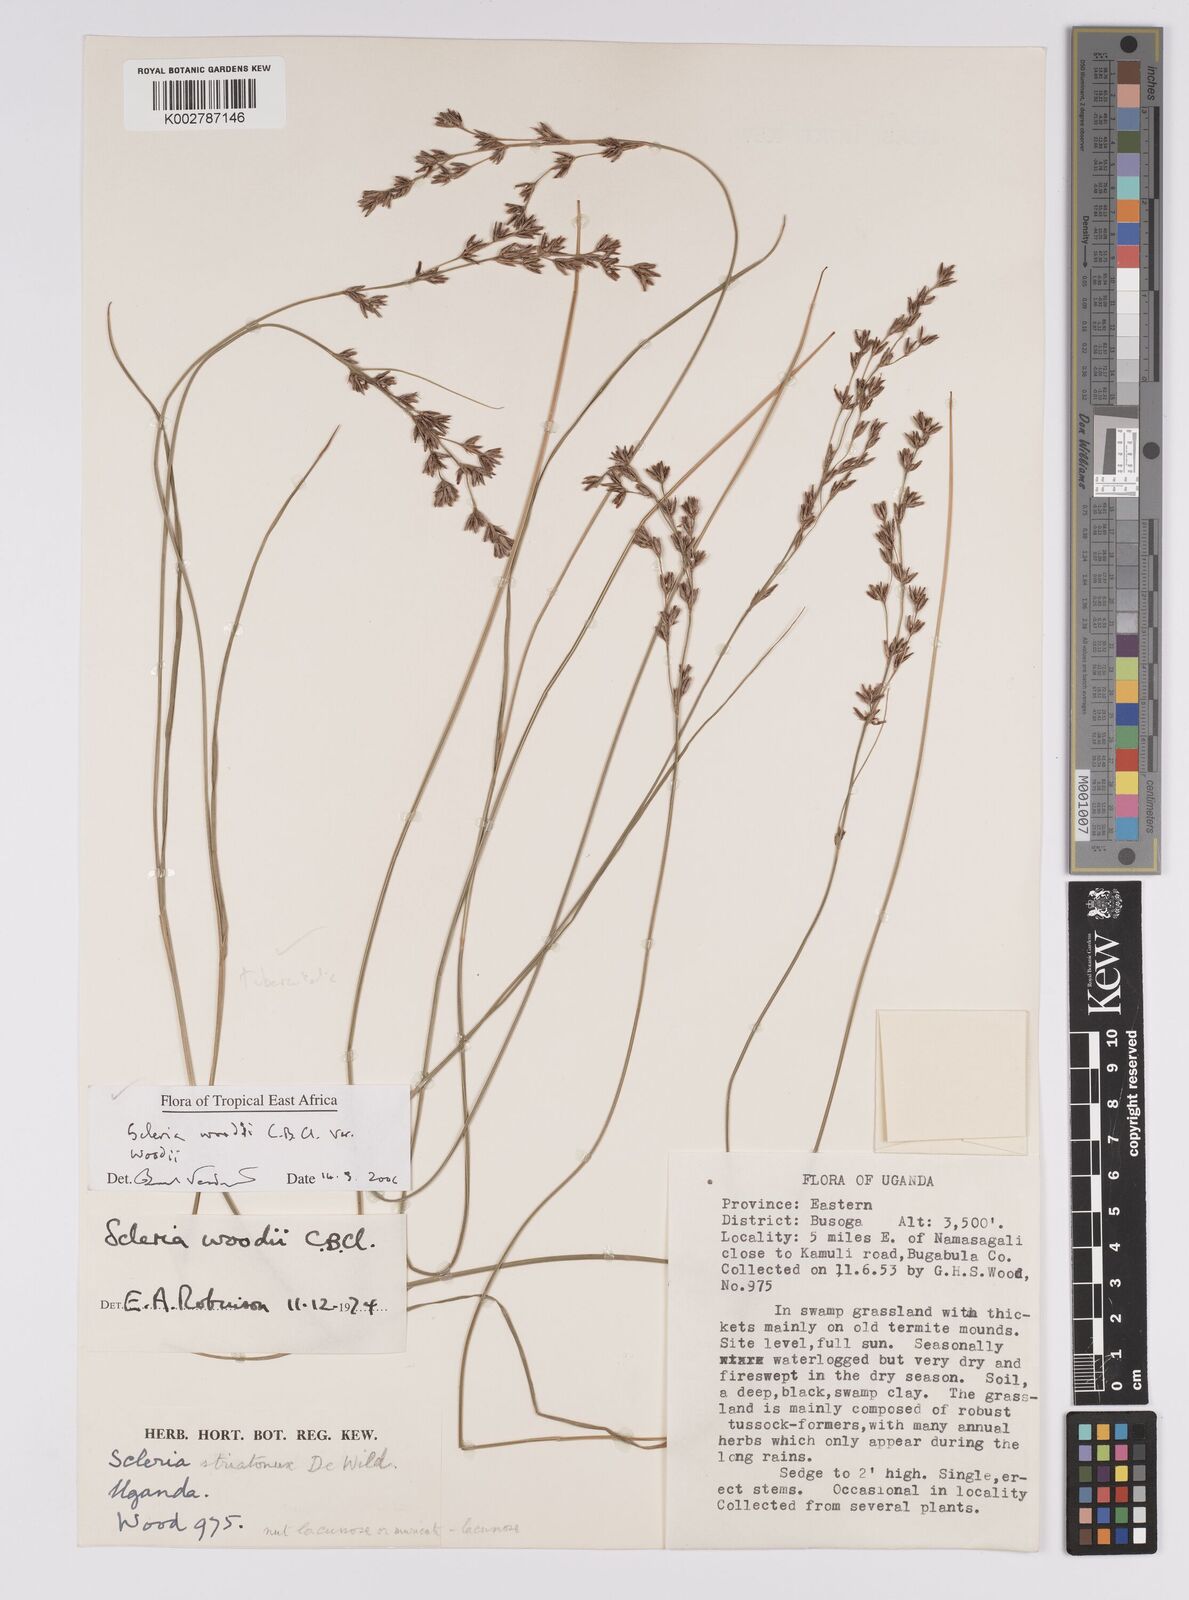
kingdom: Plantae
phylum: Tracheophyta
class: Liliopsida
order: Poales
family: Cyperaceae
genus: Scleria
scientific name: Scleria woodii
